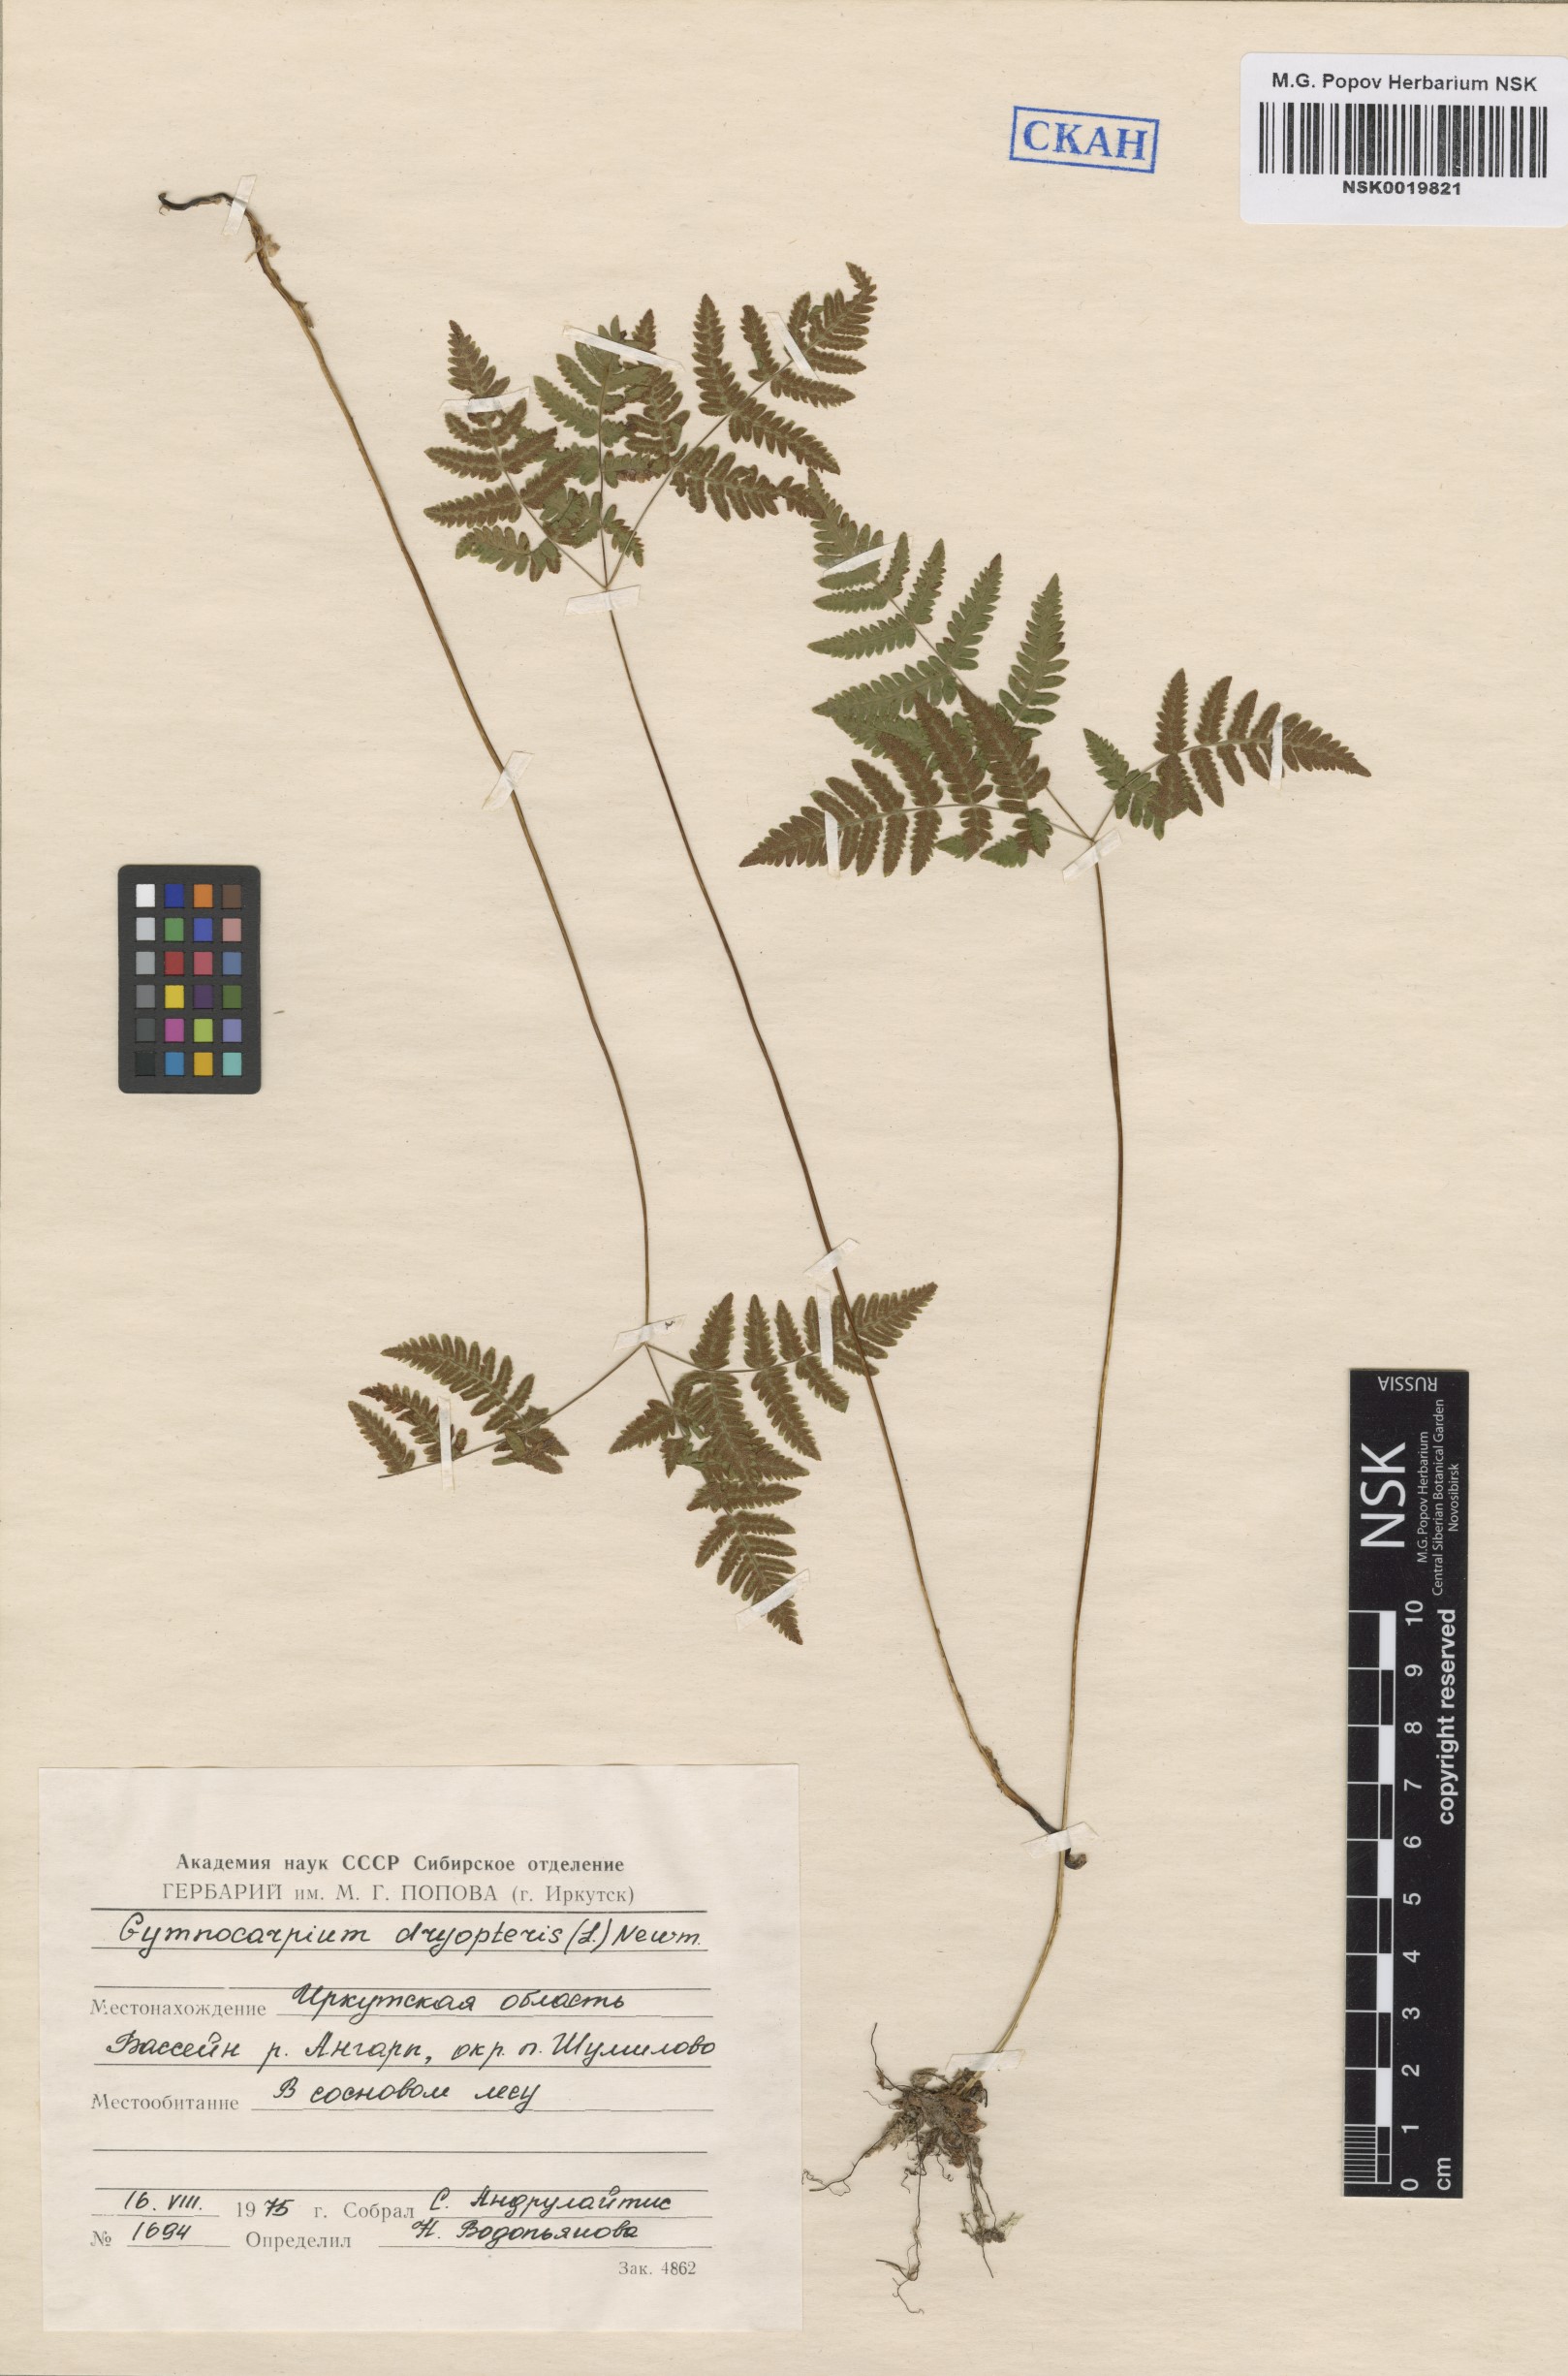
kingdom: Plantae
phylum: Tracheophyta
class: Polypodiopsida
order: Polypodiales
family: Cystopteridaceae
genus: Gymnocarpium
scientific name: Gymnocarpium dryopteris
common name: Oak fern
